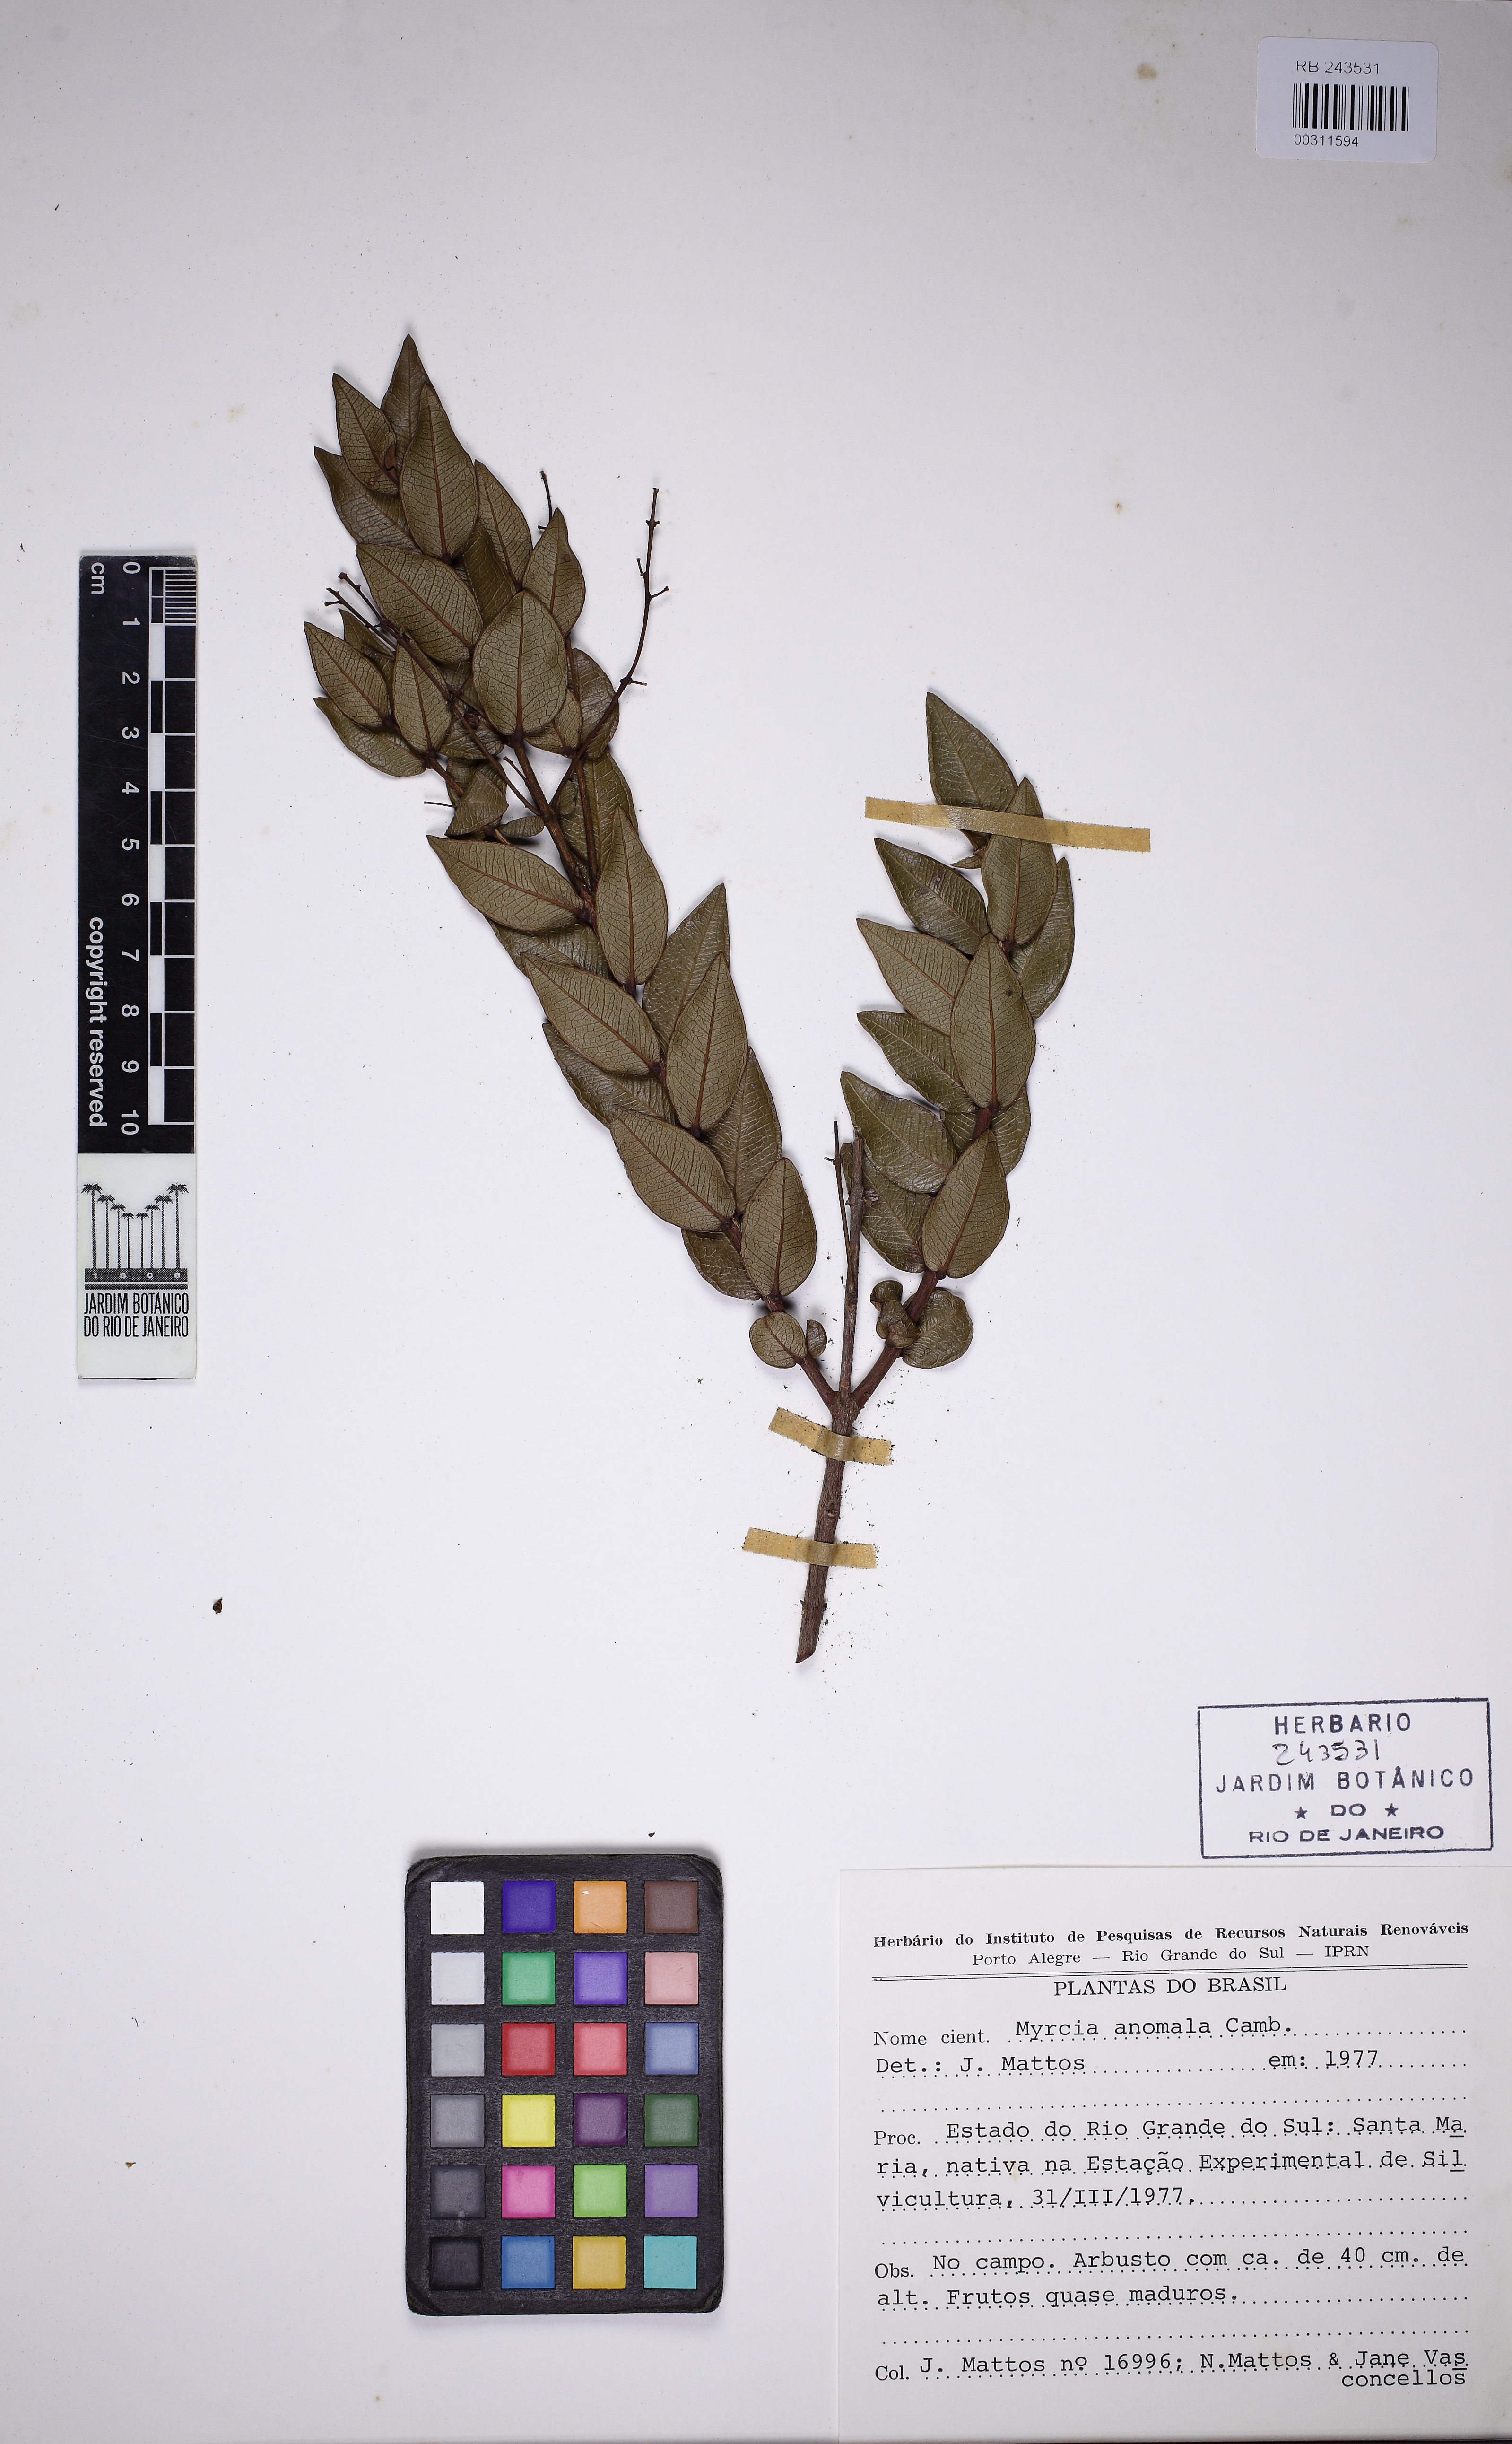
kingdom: Plantae
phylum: Tracheophyta
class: Magnoliopsida
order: Myrtales
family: Myrtaceae
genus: Myrcia
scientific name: Myrcia anomala
